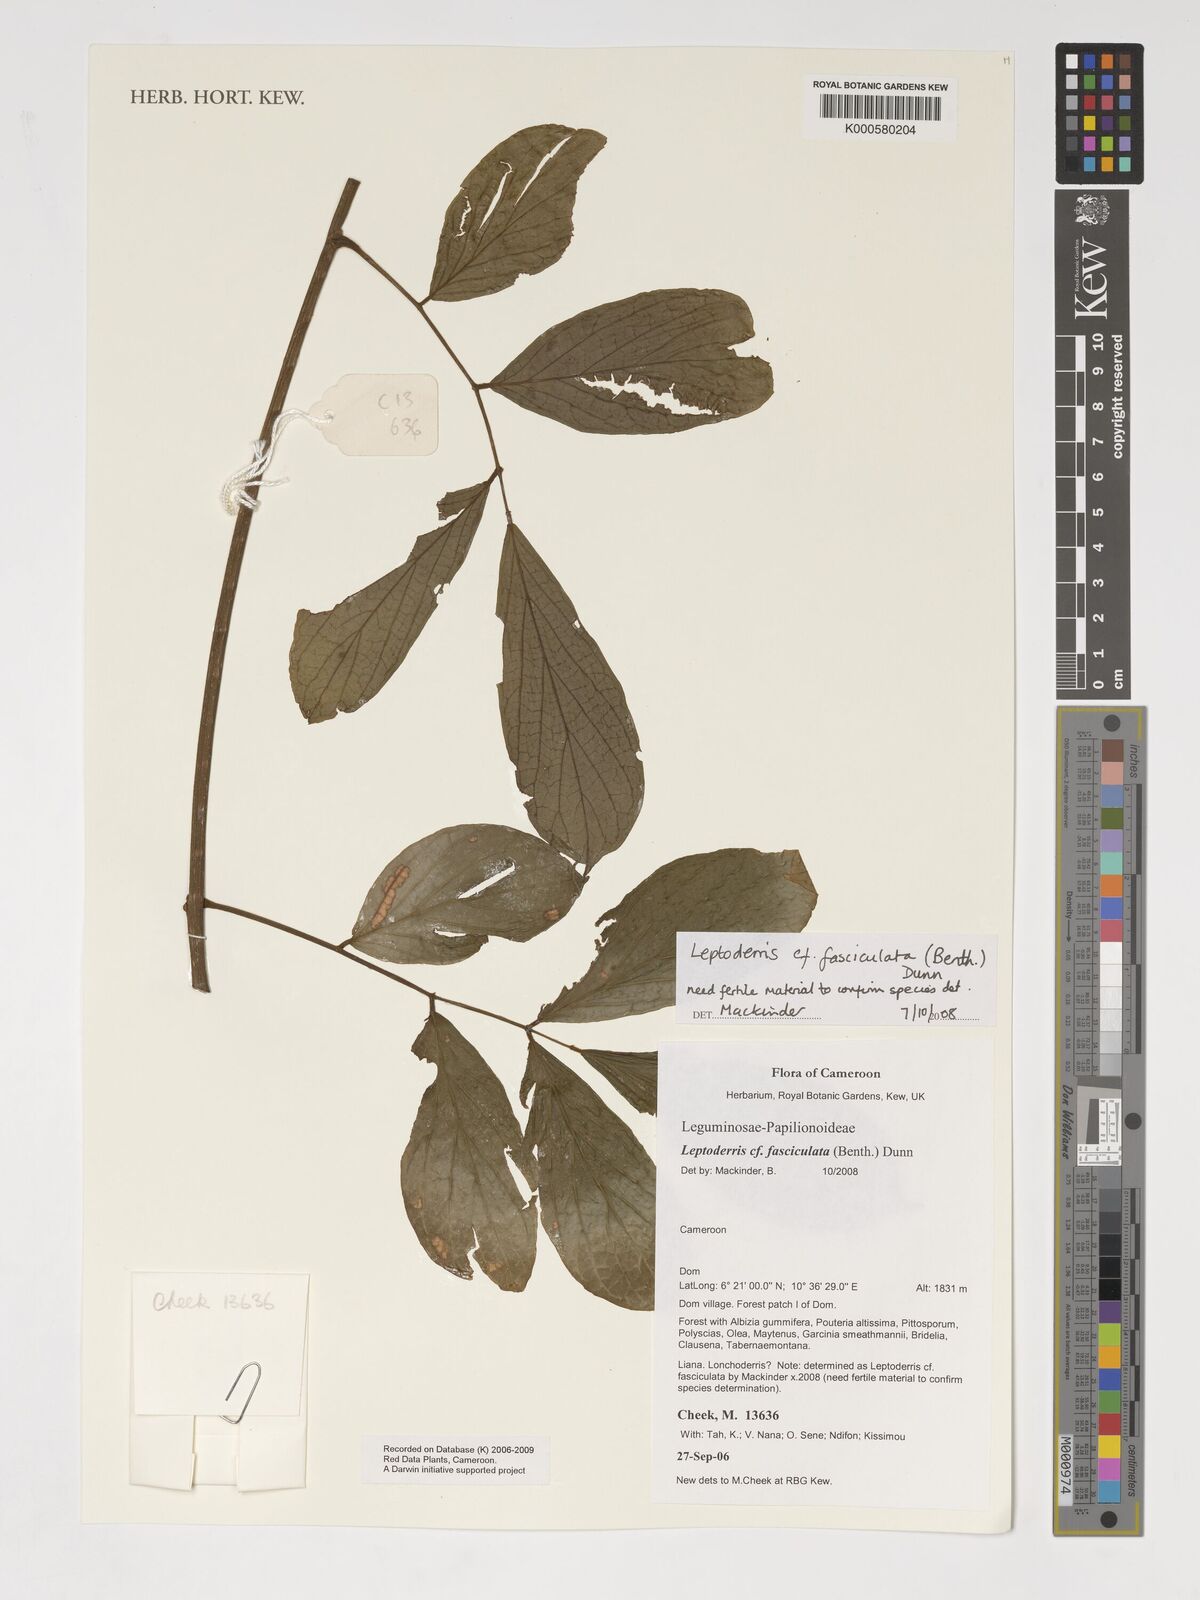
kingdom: Plantae
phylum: Tracheophyta
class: Magnoliopsida
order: Fabales
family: Fabaceae
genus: Leptoderris
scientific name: Leptoderris fasciculata
